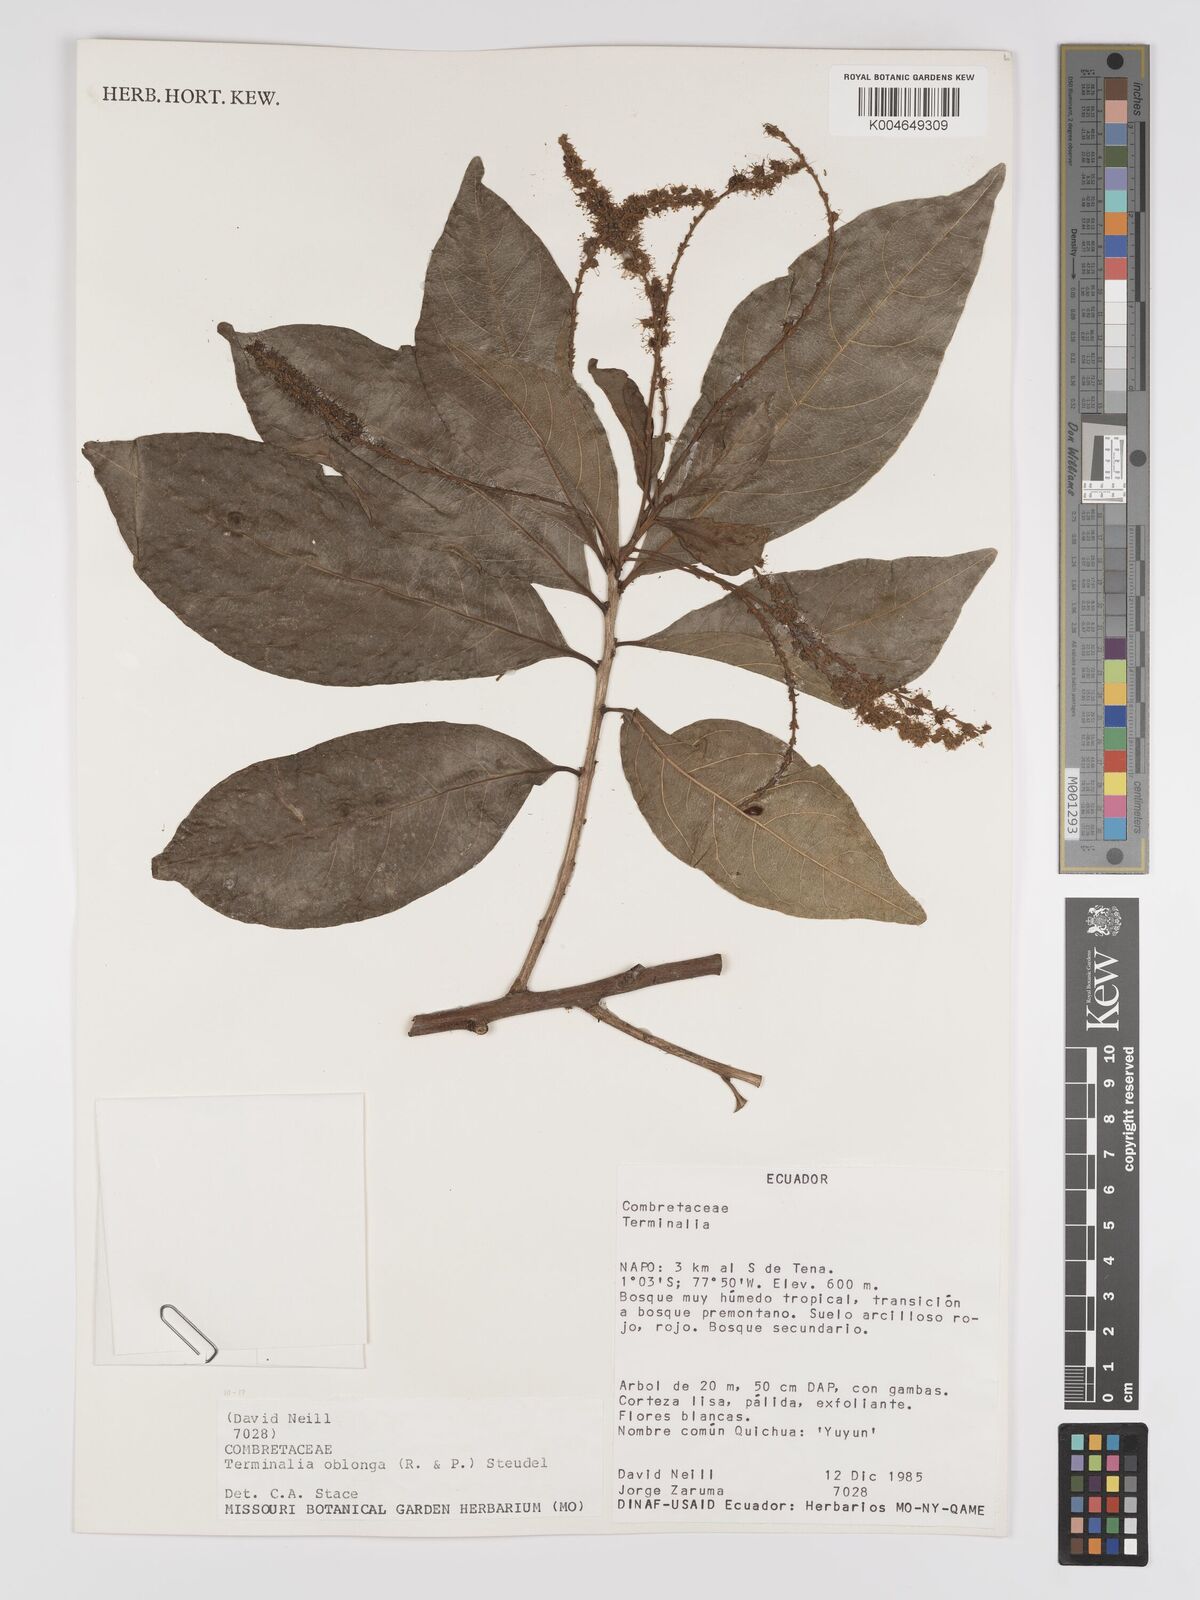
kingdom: Plantae
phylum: Tracheophyta
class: Magnoliopsida
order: Myrtales
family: Combretaceae
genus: Terminalia
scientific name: Terminalia oblonga
